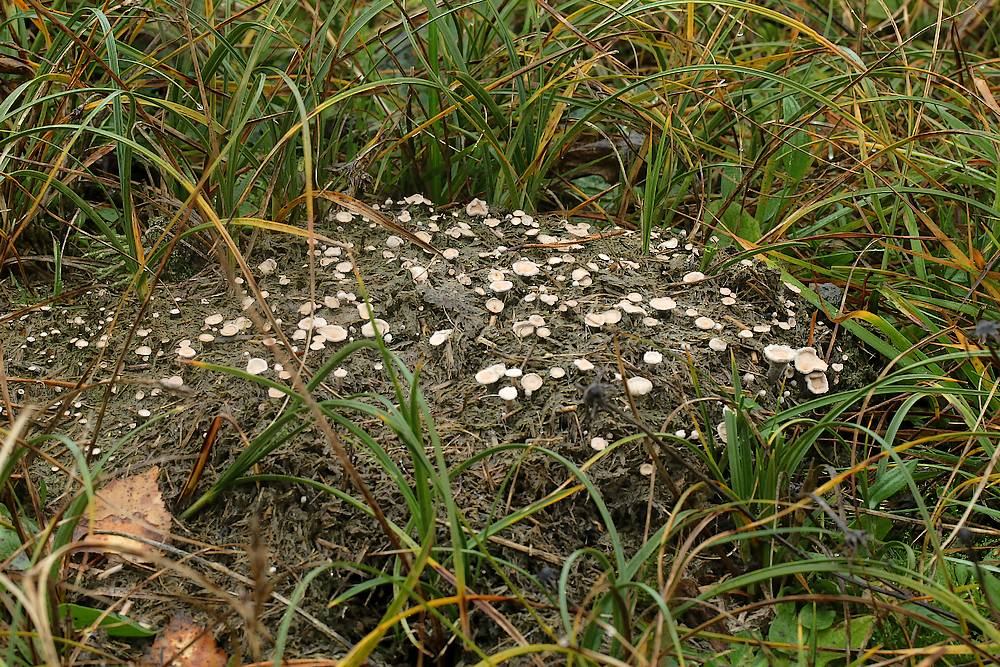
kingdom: Fungi
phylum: Ascomycota
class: Sordariomycetes
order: Xylariales
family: Xylariaceae
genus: Poronia
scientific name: Poronia punctata
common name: stor priksvamp
